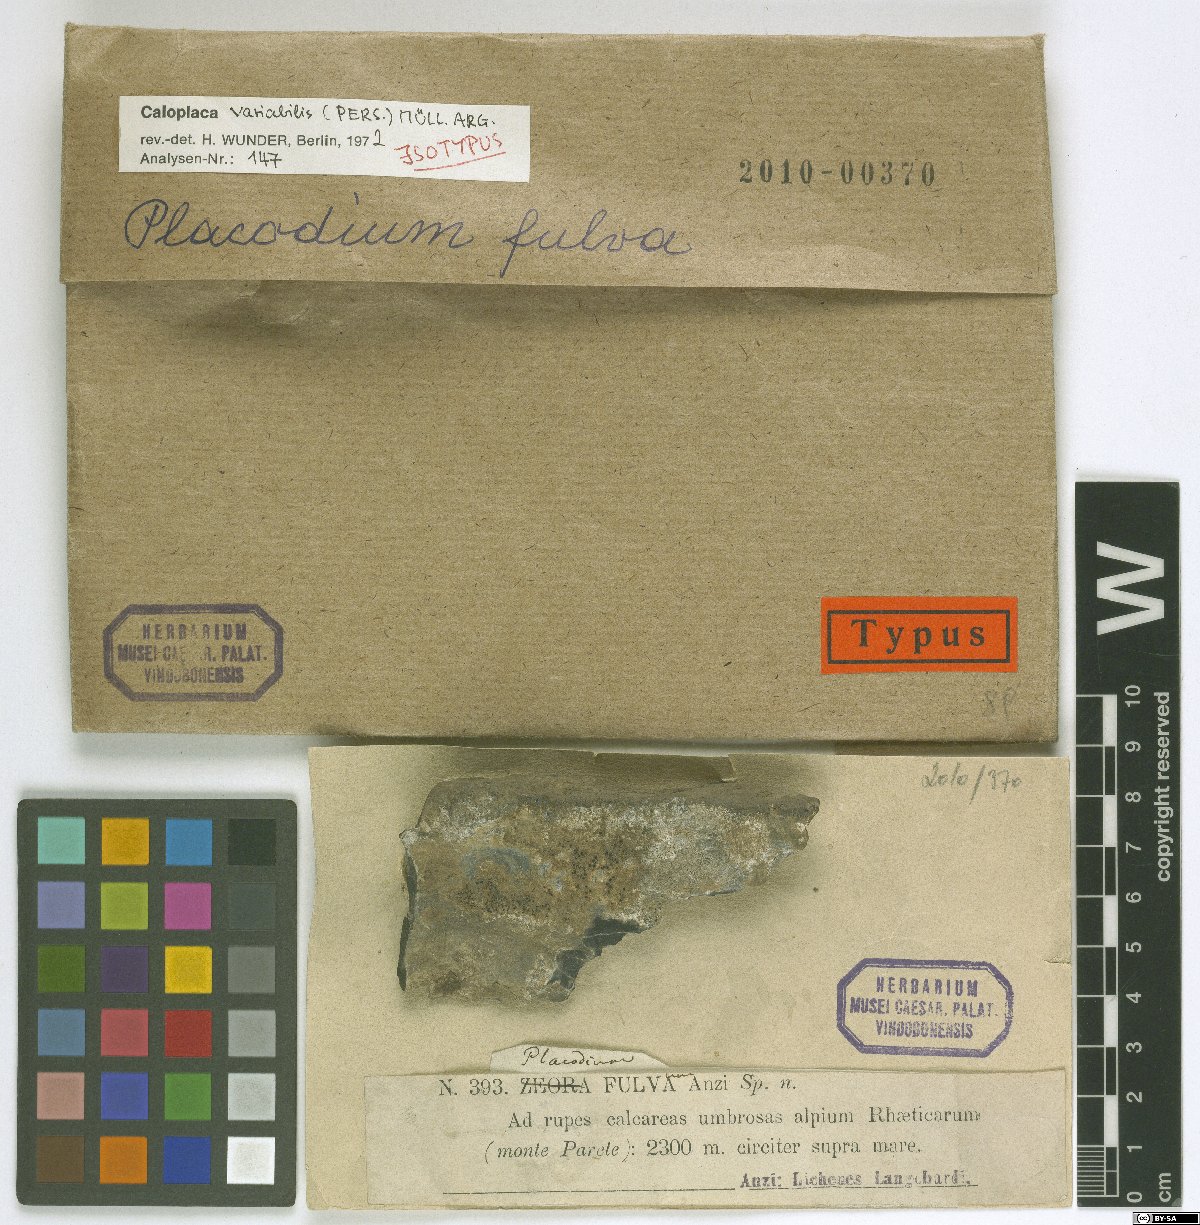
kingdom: Fungi
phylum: Ascomycota
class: Lecanoromycetes
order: Teloschistales
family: Teloschistaceae
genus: Pyrenodesmia
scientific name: Pyrenodesmia variabilis
